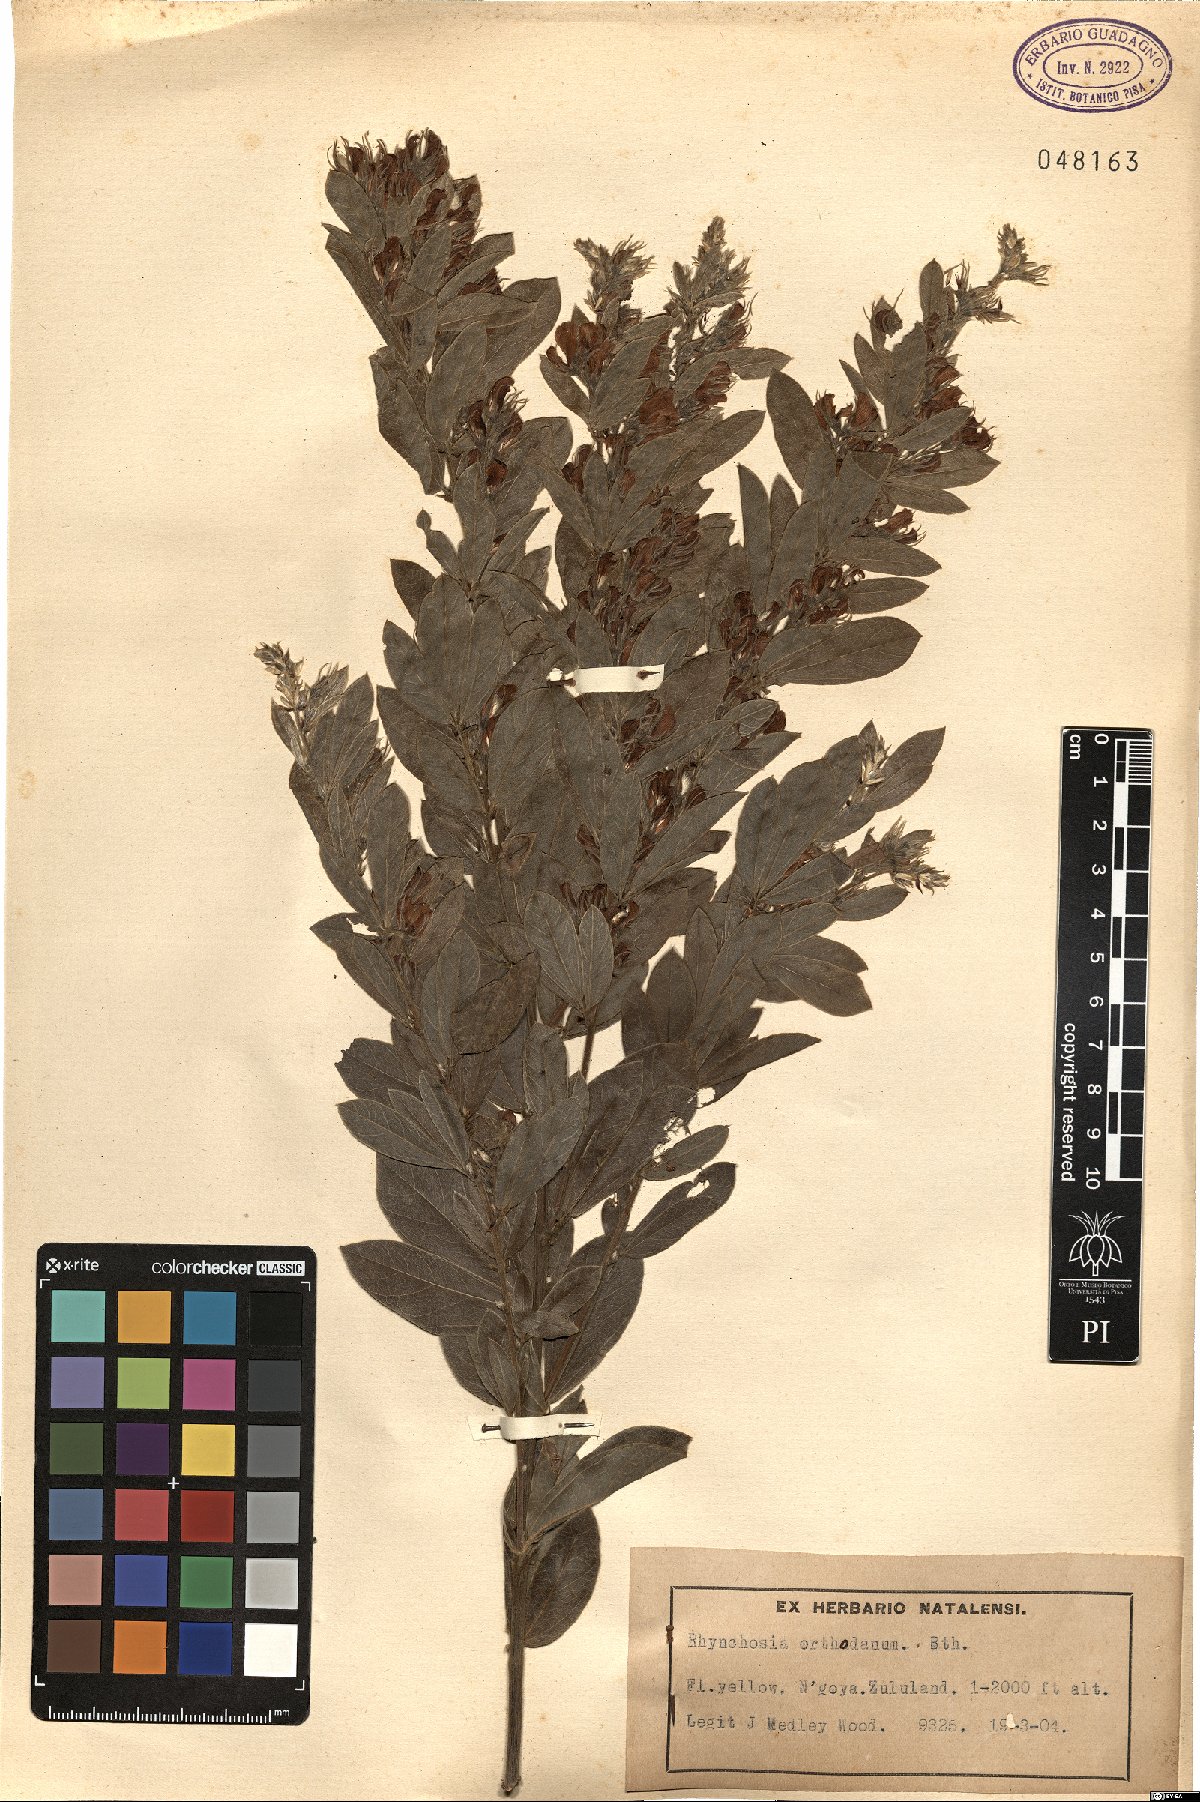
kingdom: Plantae
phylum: Tracheophyta
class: Magnoliopsida
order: Fabales
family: Fabaceae
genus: Rhynchosia
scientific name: Rhynchosia sordida
